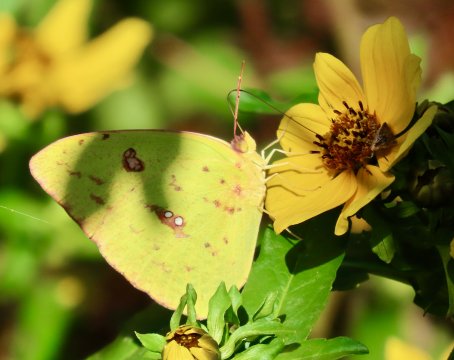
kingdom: Animalia
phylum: Arthropoda
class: Insecta
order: Lepidoptera
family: Pieridae
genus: Phoebis
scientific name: Phoebis sennae
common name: Cloudless Sulphur
